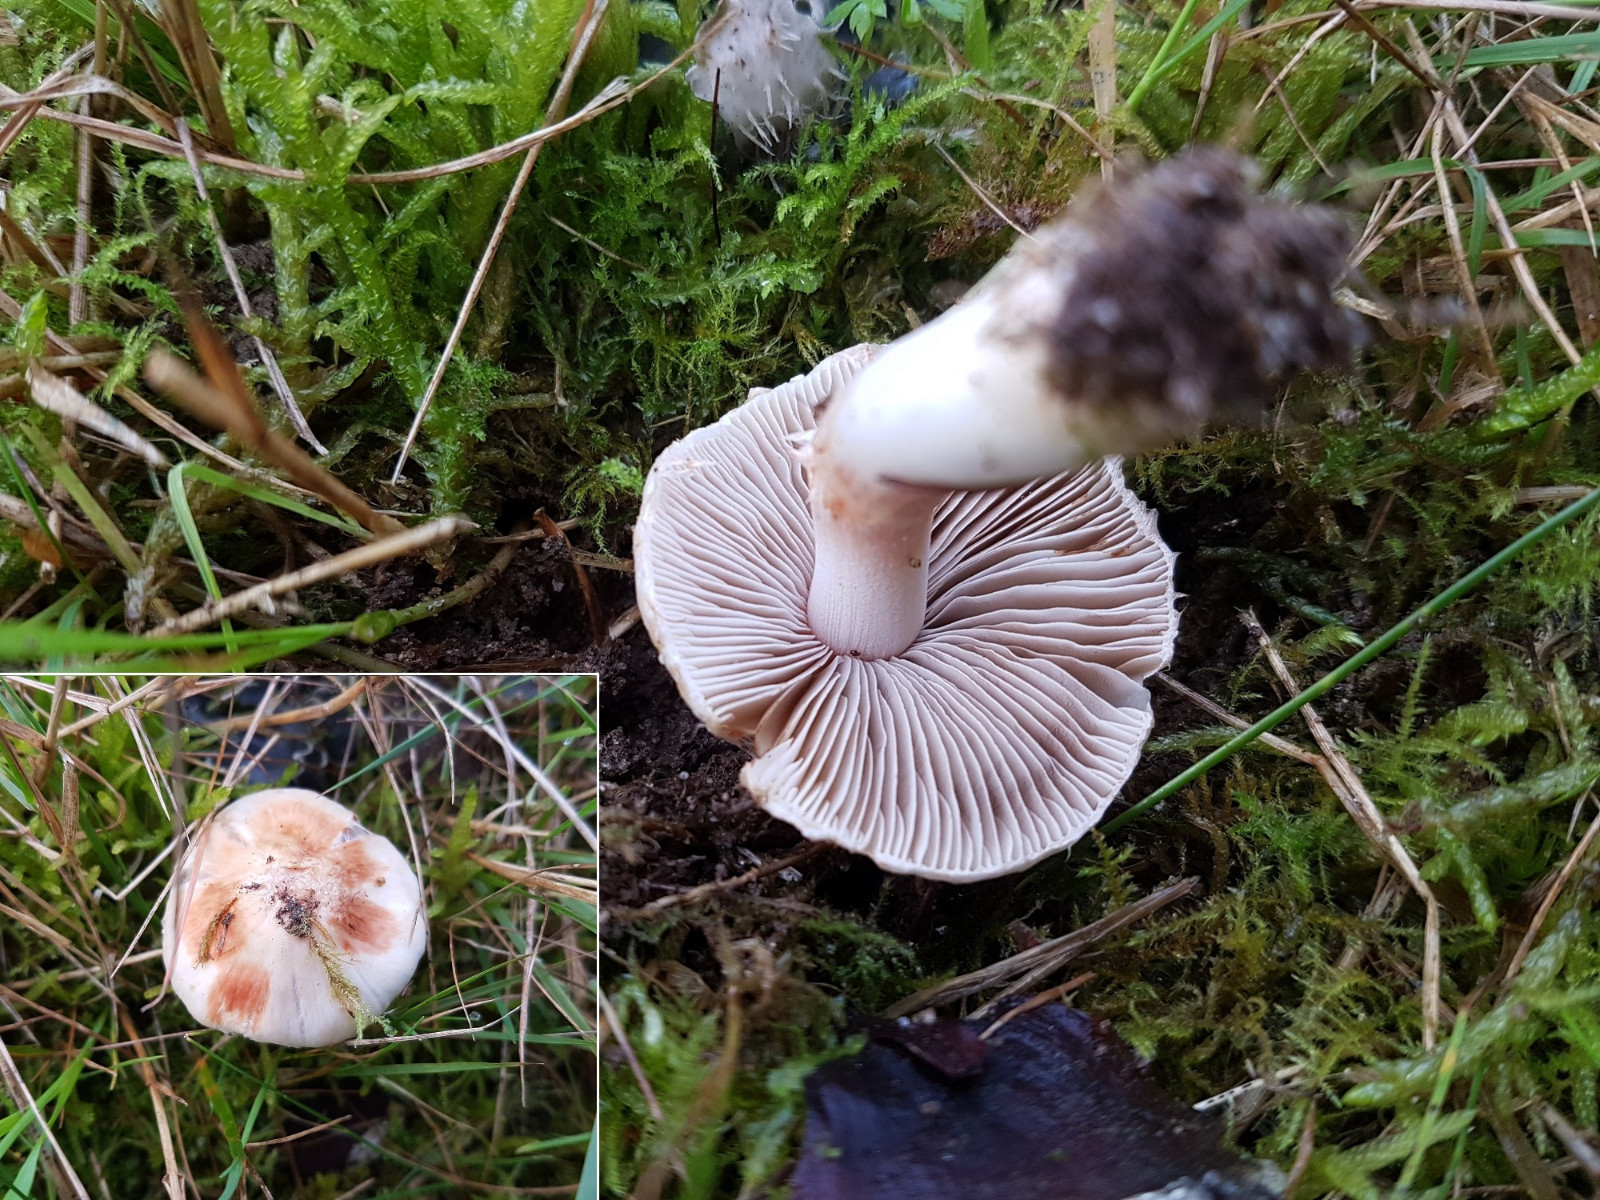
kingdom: Fungi
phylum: Basidiomycota
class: Agaricomycetes
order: Agaricales
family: Inocybaceae
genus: Inocybe
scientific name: Inocybe
